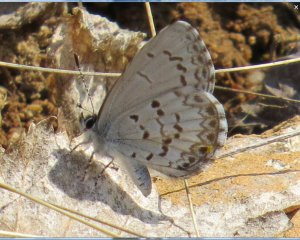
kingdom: Animalia
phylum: Arthropoda
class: Insecta
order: Lepidoptera
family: Lycaenidae
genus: Celastrina
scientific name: Celastrina serotina
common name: Cherry Gall Azure
